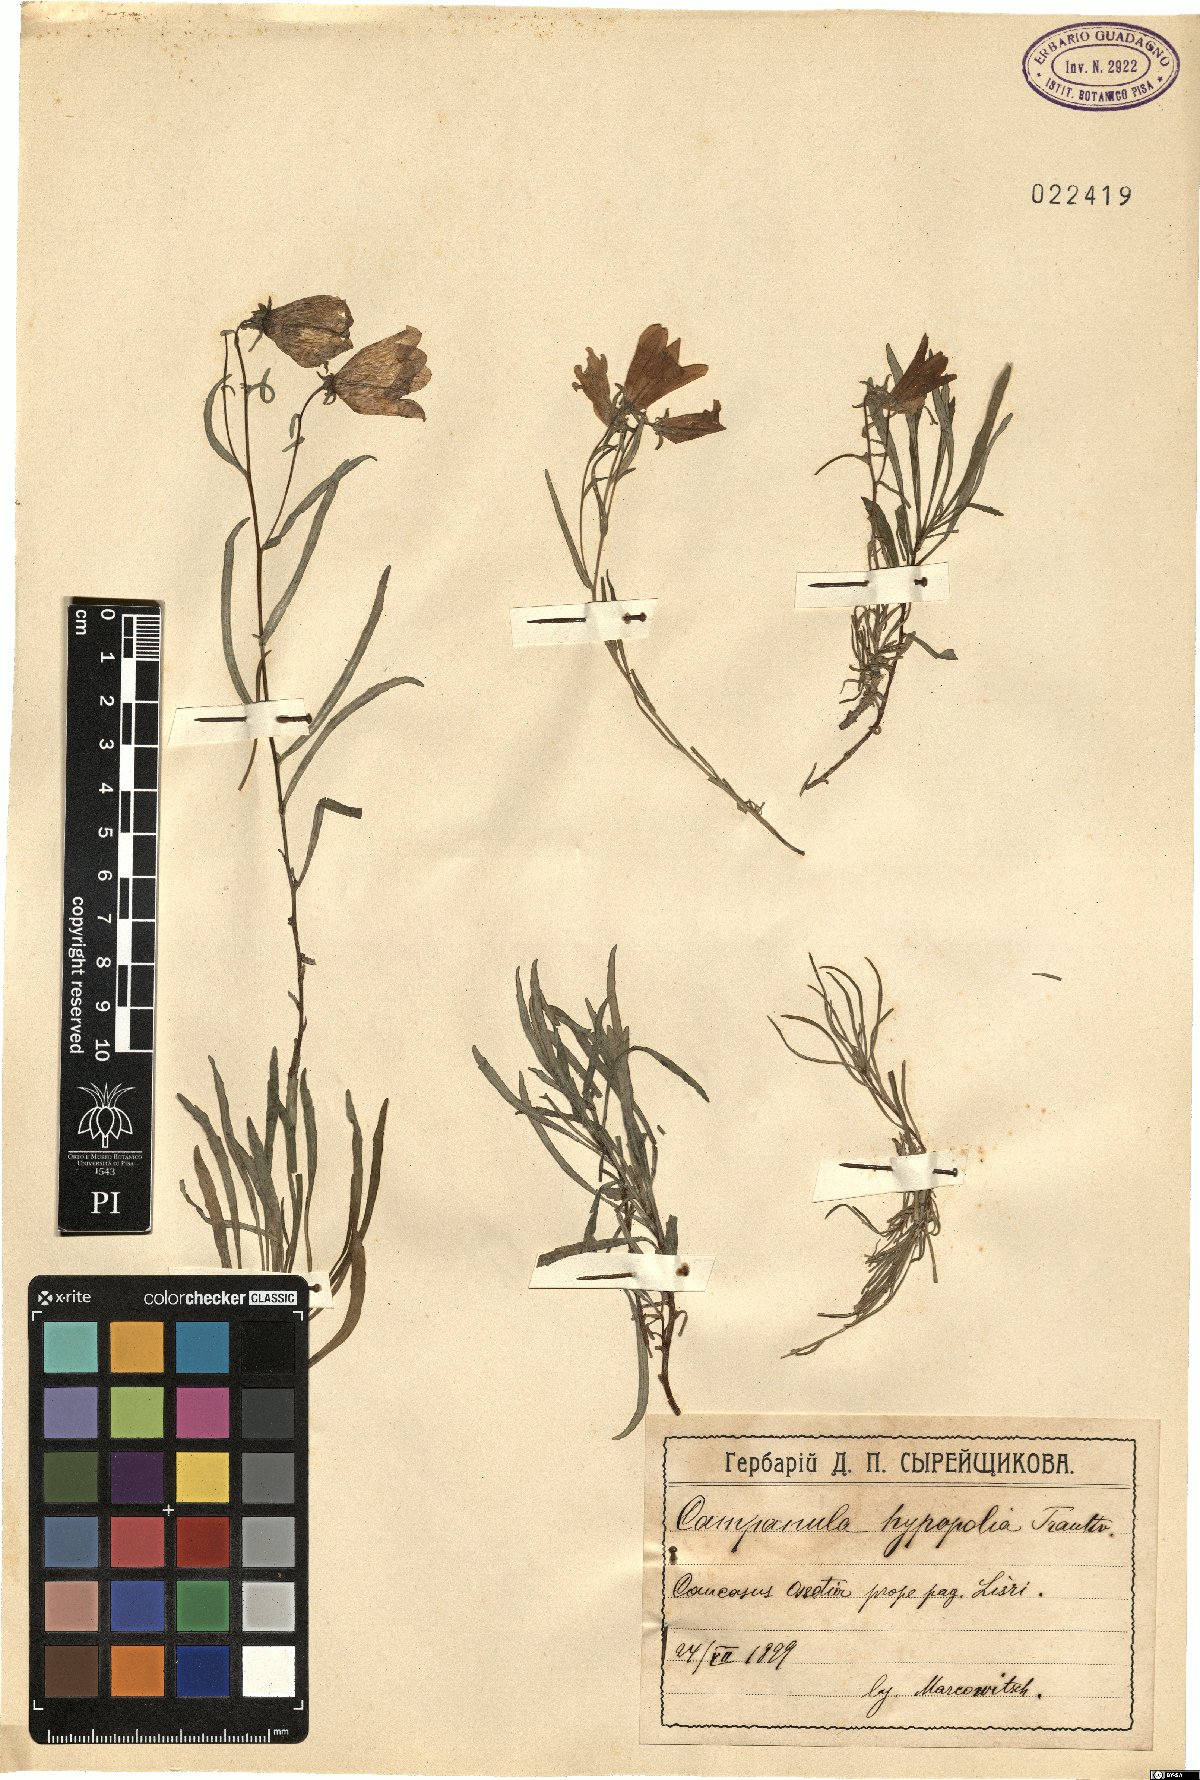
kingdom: Plantae
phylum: Tracheophyta
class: Magnoliopsida
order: Asterales
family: Campanulaceae
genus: Campanula
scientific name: Campanula hypopolia
